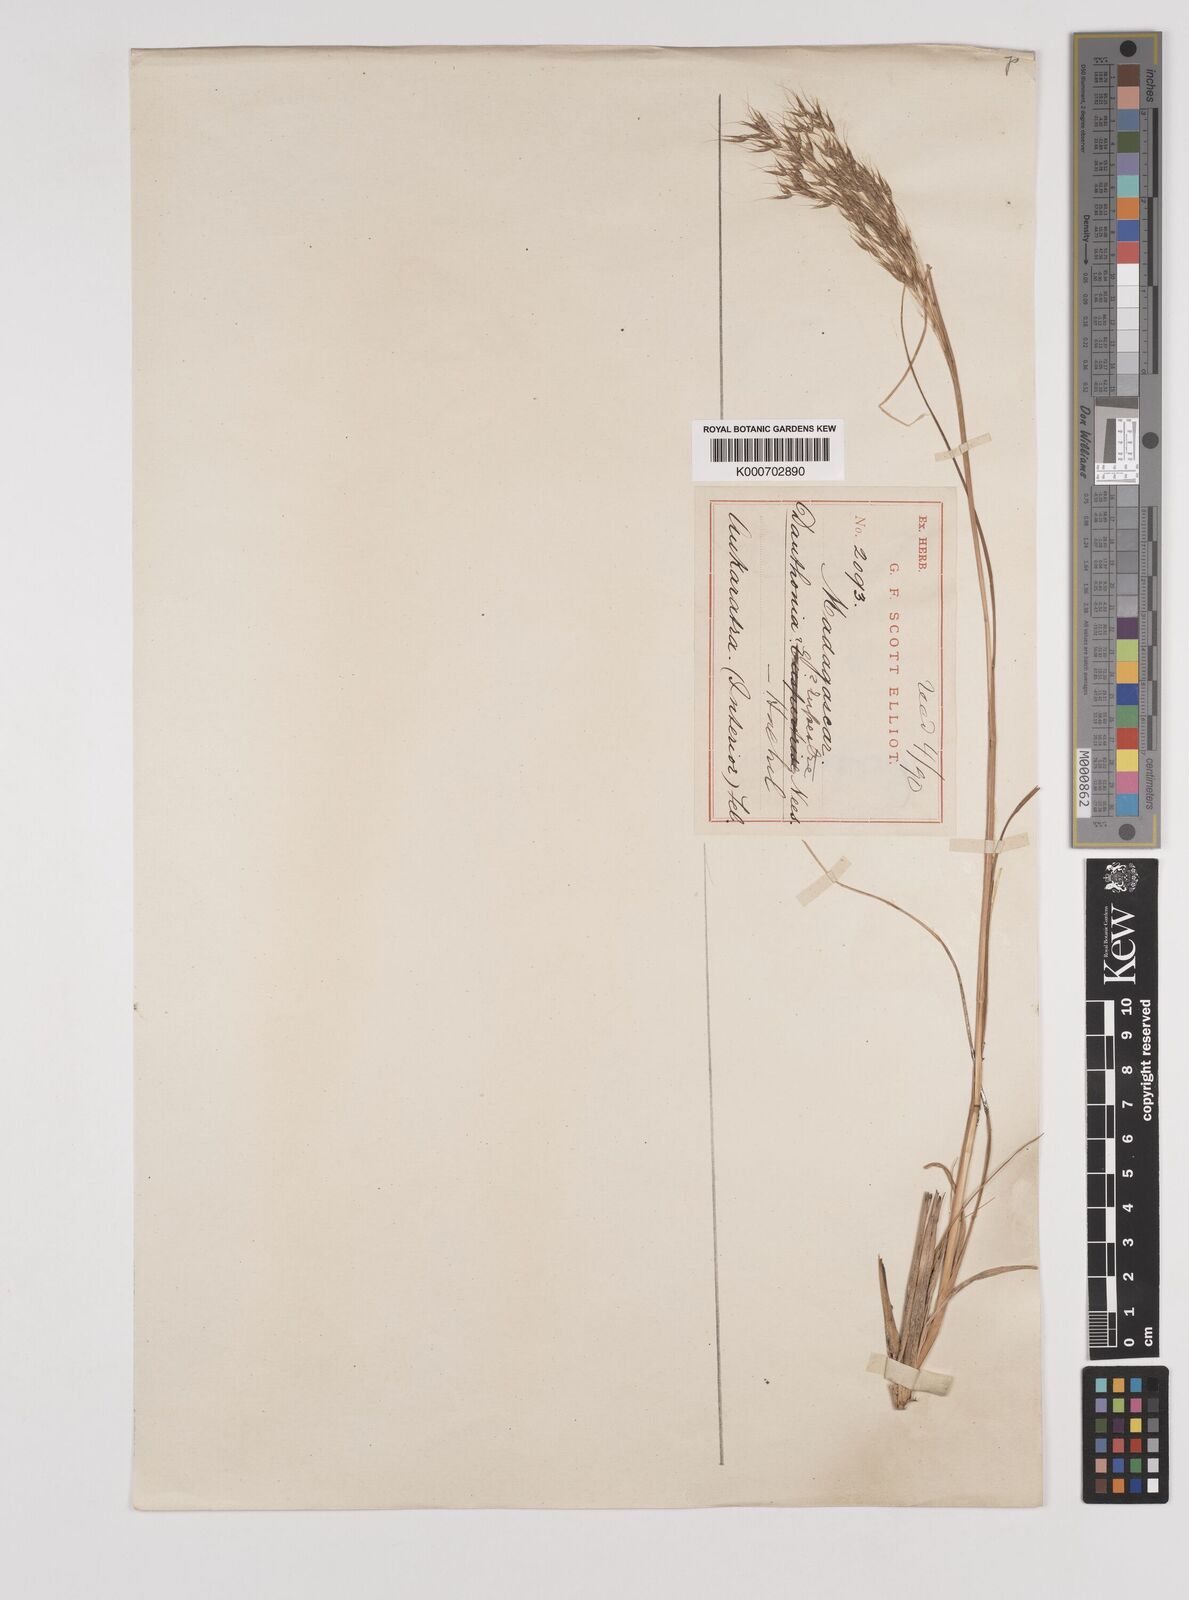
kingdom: Plantae
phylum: Tracheophyta
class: Liliopsida
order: Poales
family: Poaceae
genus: Pentameris
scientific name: Pentameris natalensis
